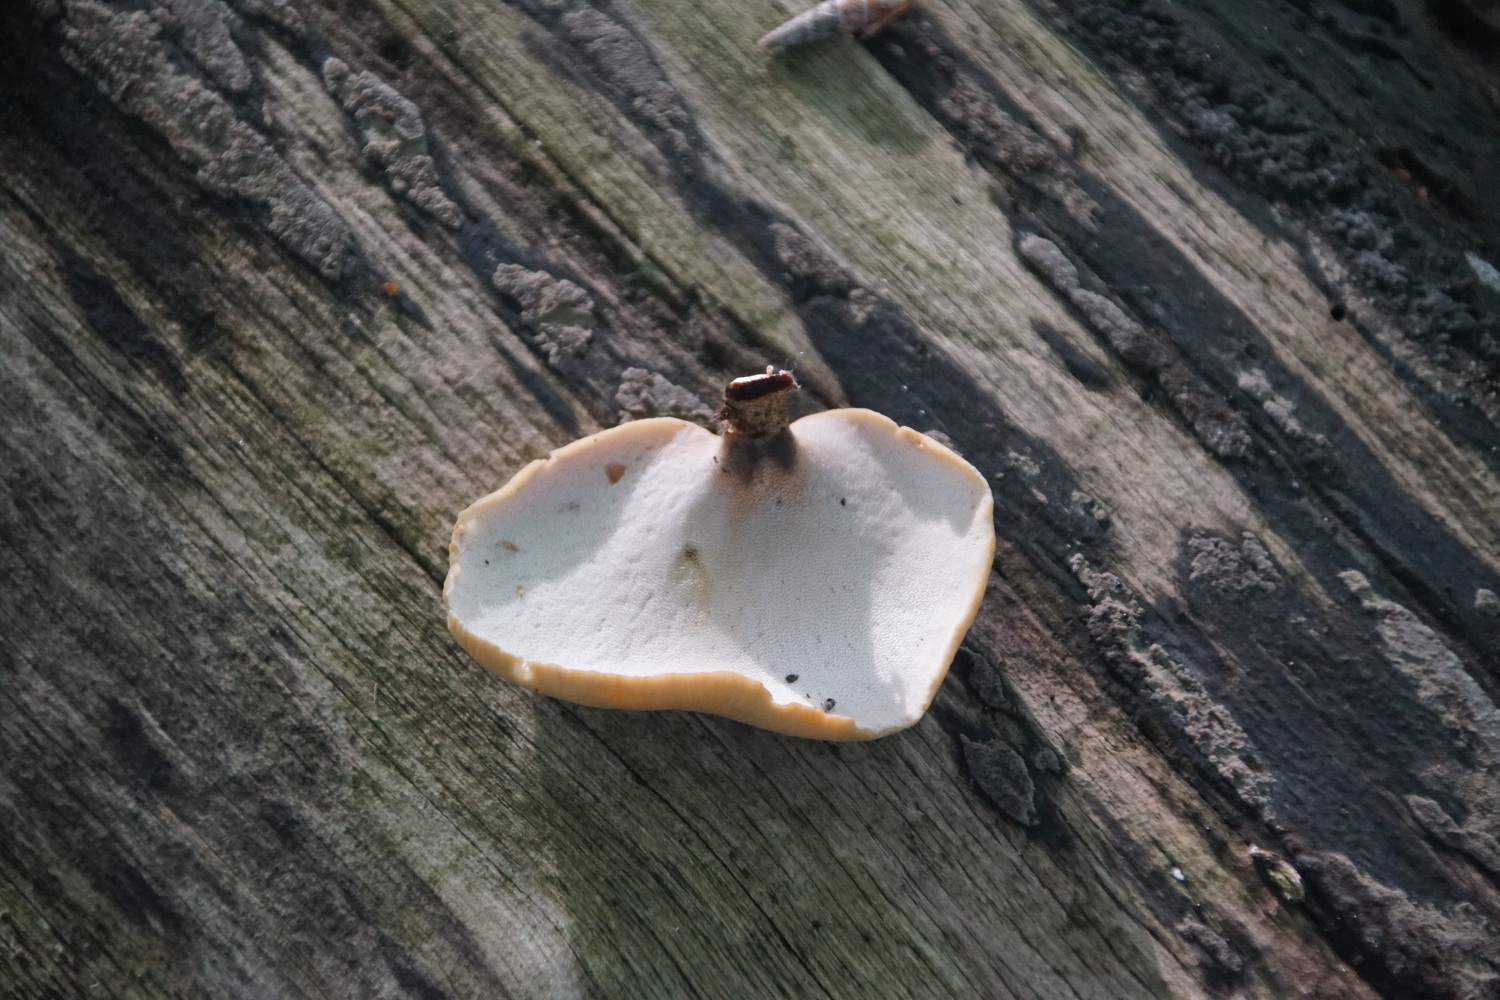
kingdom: Fungi
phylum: Basidiomycota
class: Agaricomycetes
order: Polyporales
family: Polyporaceae
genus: Cerioporus
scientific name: Cerioporus varius
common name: foranderlig stilkporesvamp
